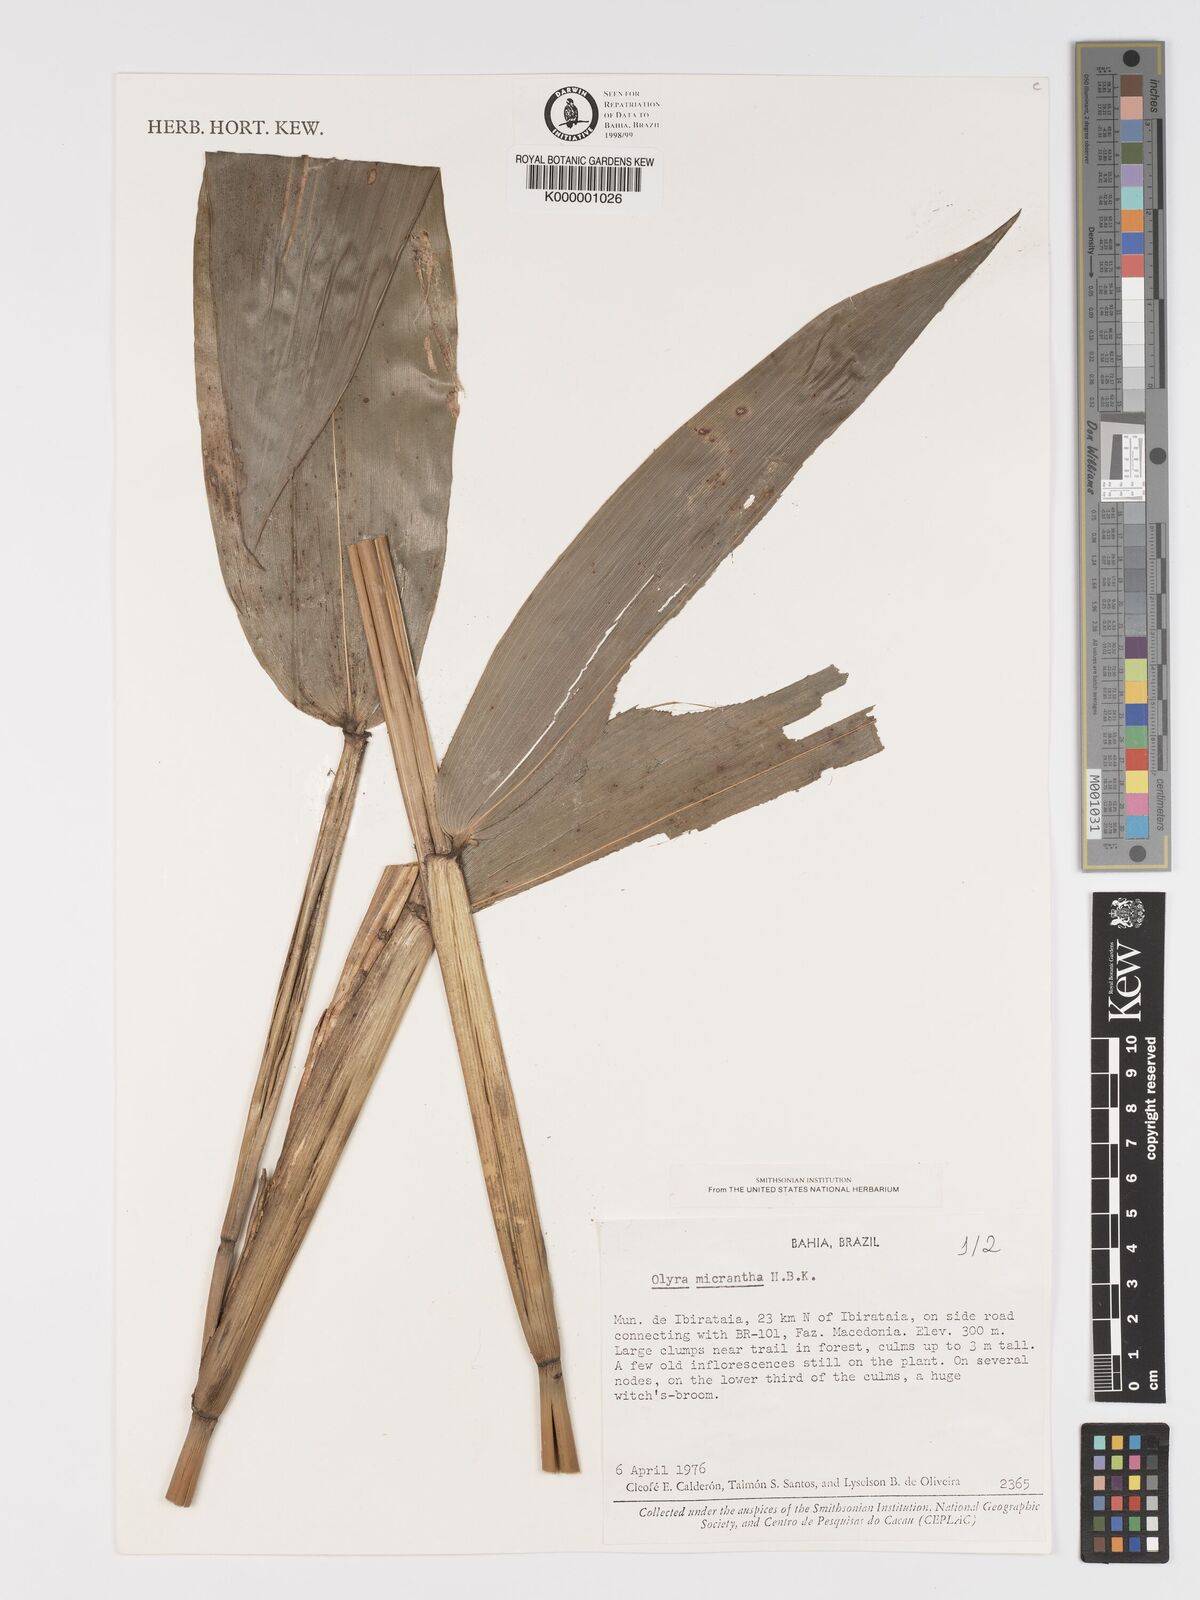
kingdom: Plantae
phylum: Tracheophyta
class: Liliopsida
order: Poales
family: Poaceae
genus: Taquara
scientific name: Taquara micrantha
